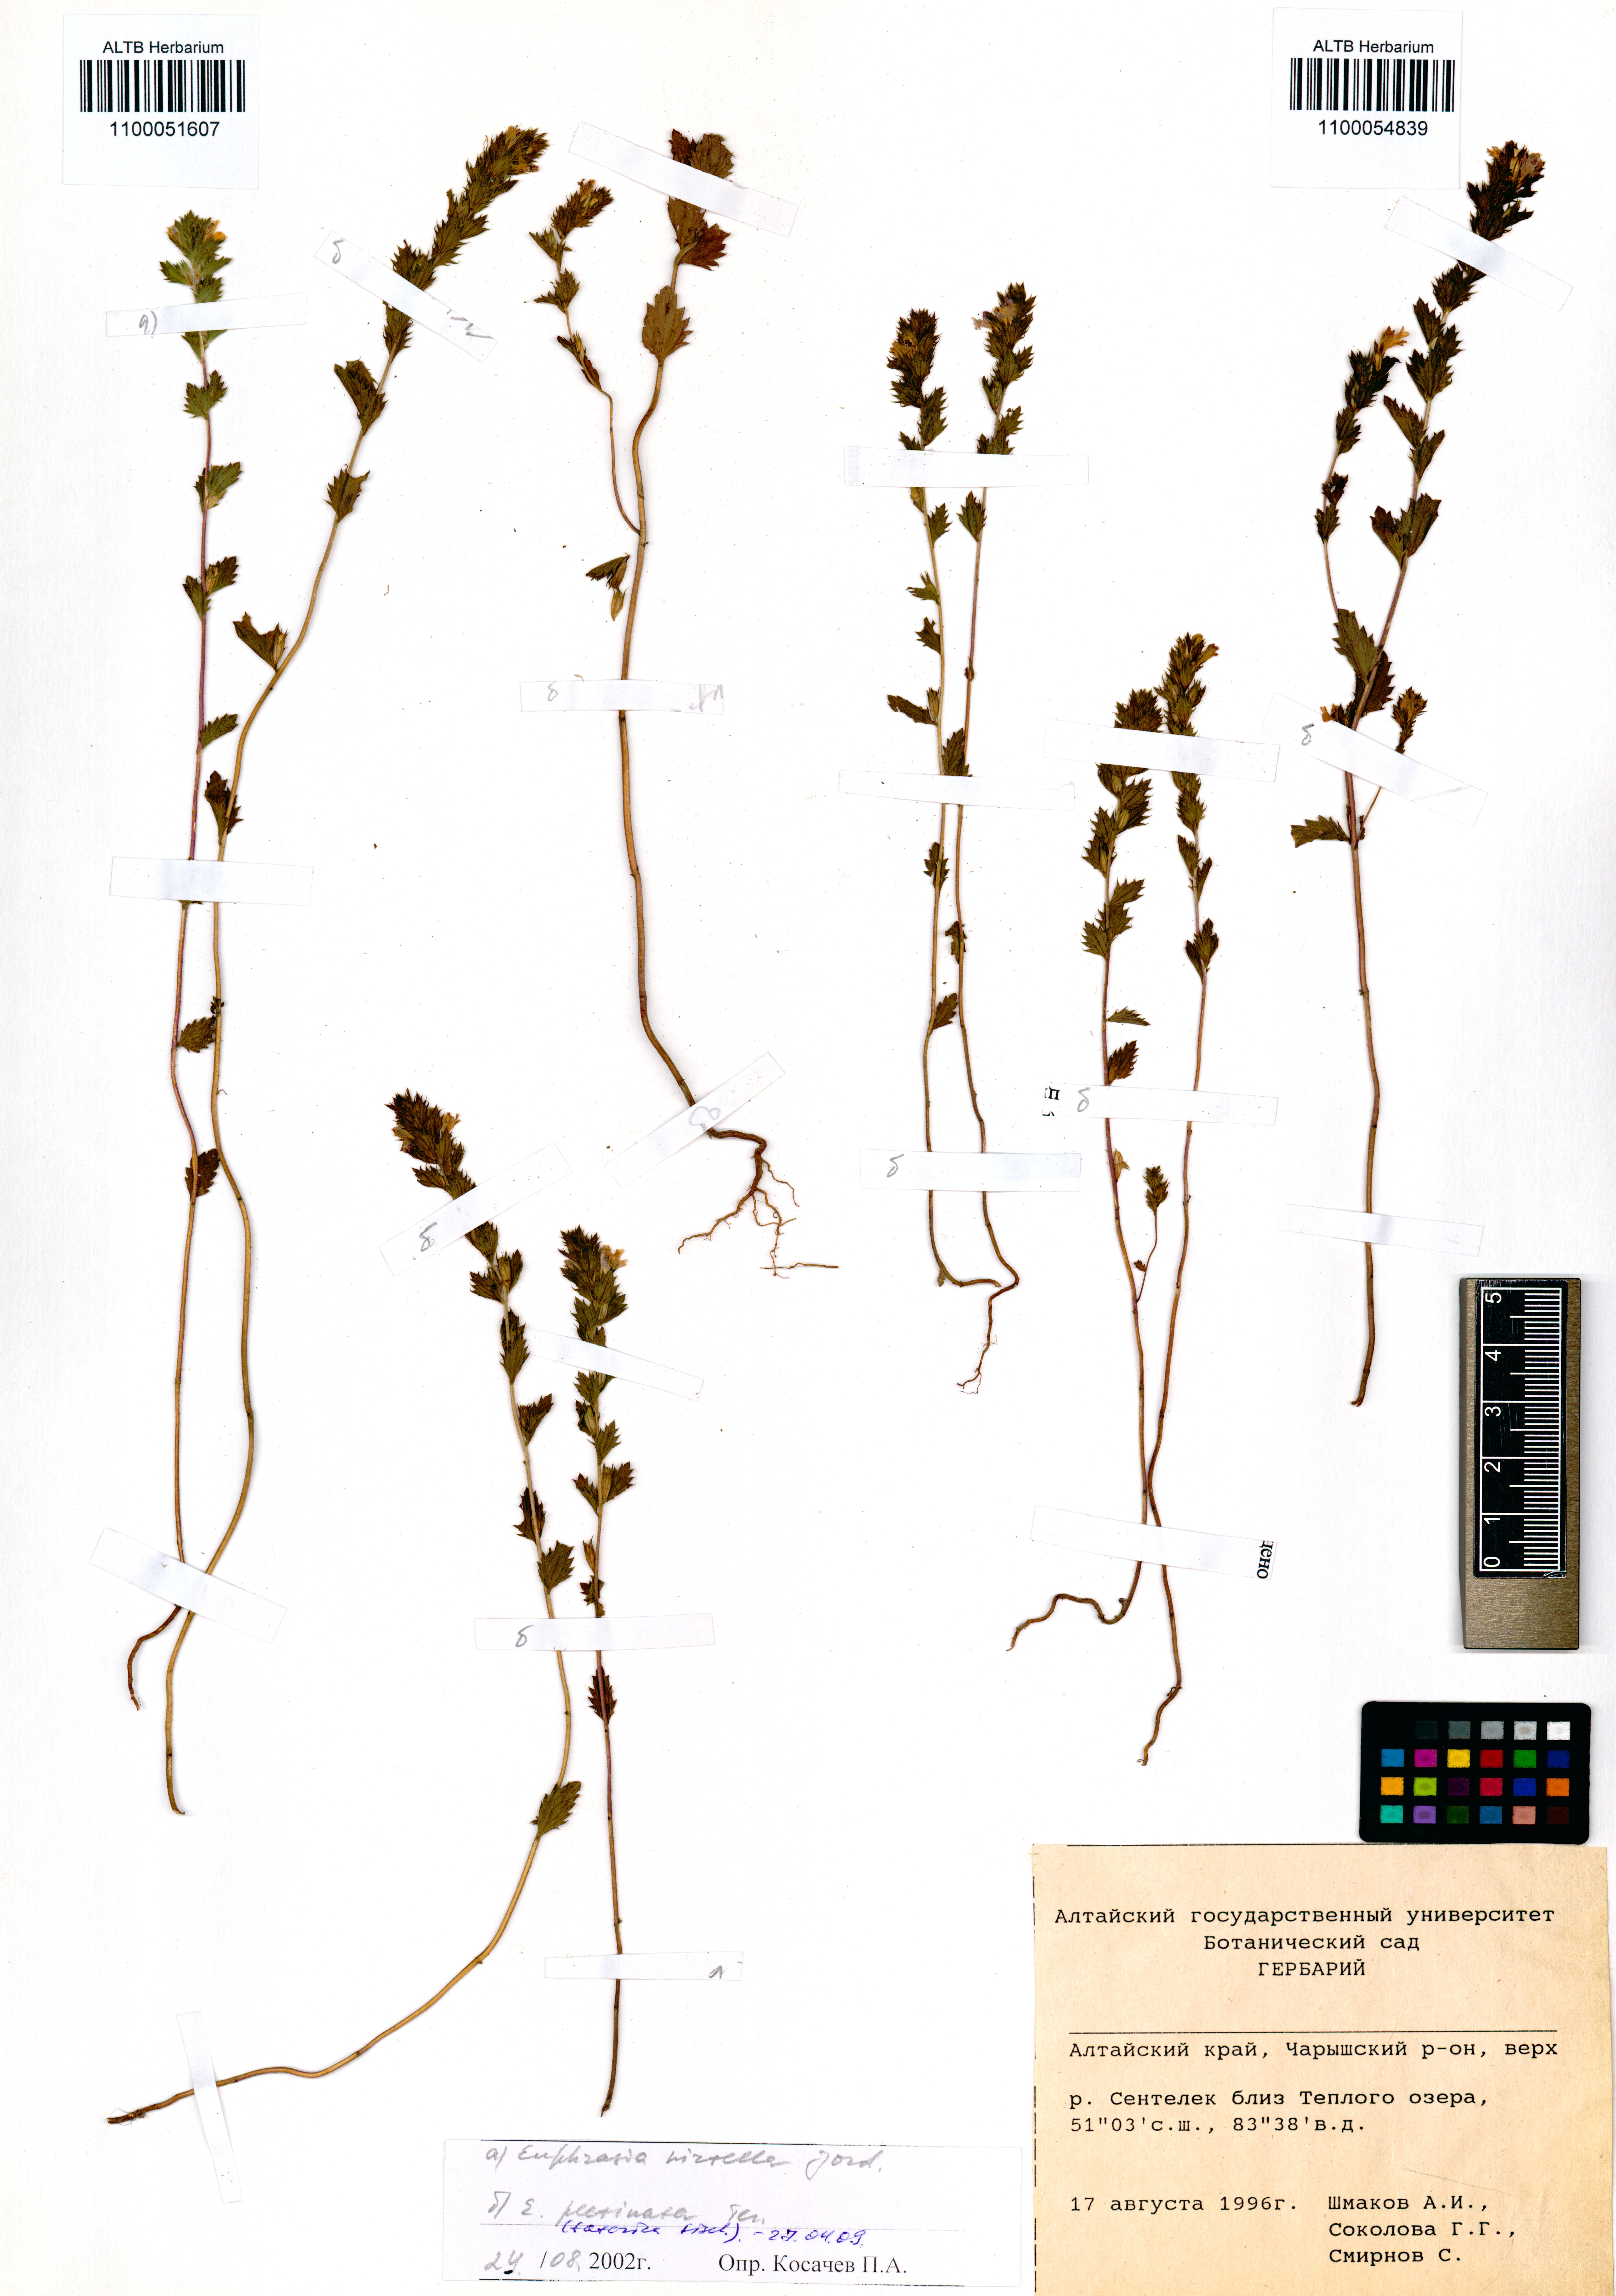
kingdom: Plantae
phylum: Tracheophyta
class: Magnoliopsida
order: Lamiales
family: Orobanchaceae
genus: Euphrasia
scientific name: Euphrasia hirtella
